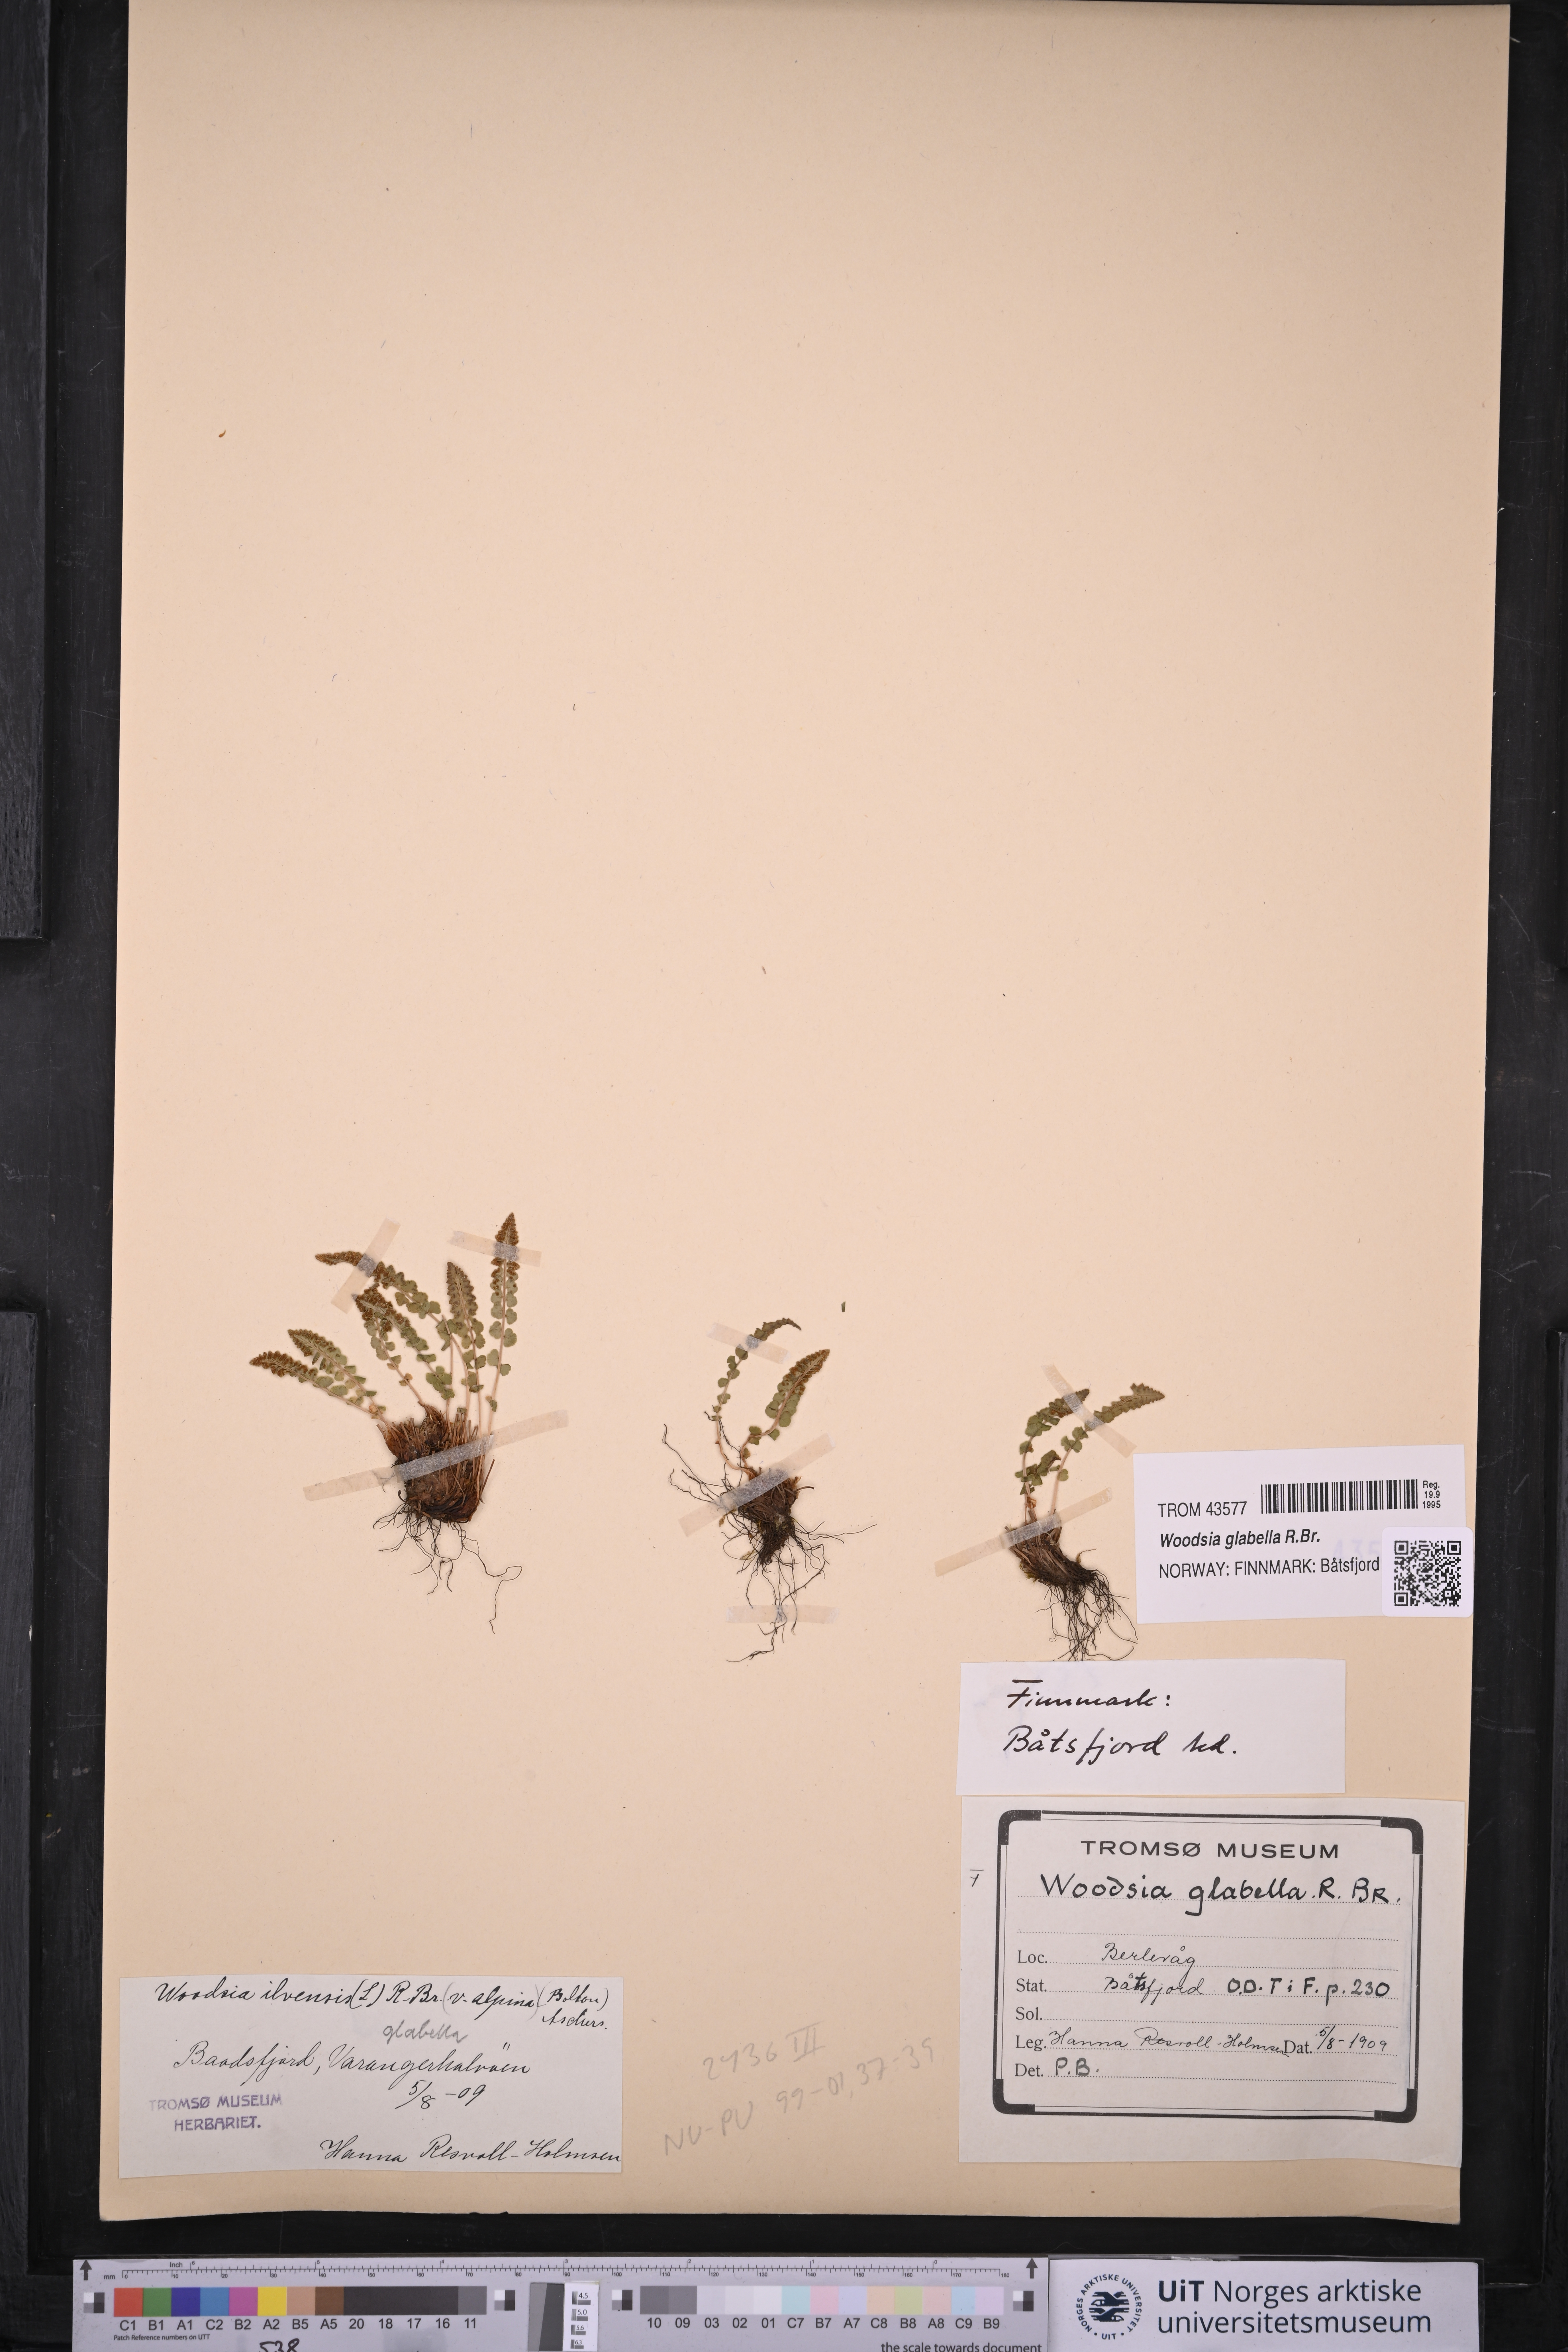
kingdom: Plantae
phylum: Tracheophyta
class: Polypodiopsida
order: Polypodiales
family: Woodsiaceae
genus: Woodsia
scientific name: Woodsia glabella
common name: Smooth woodsia
